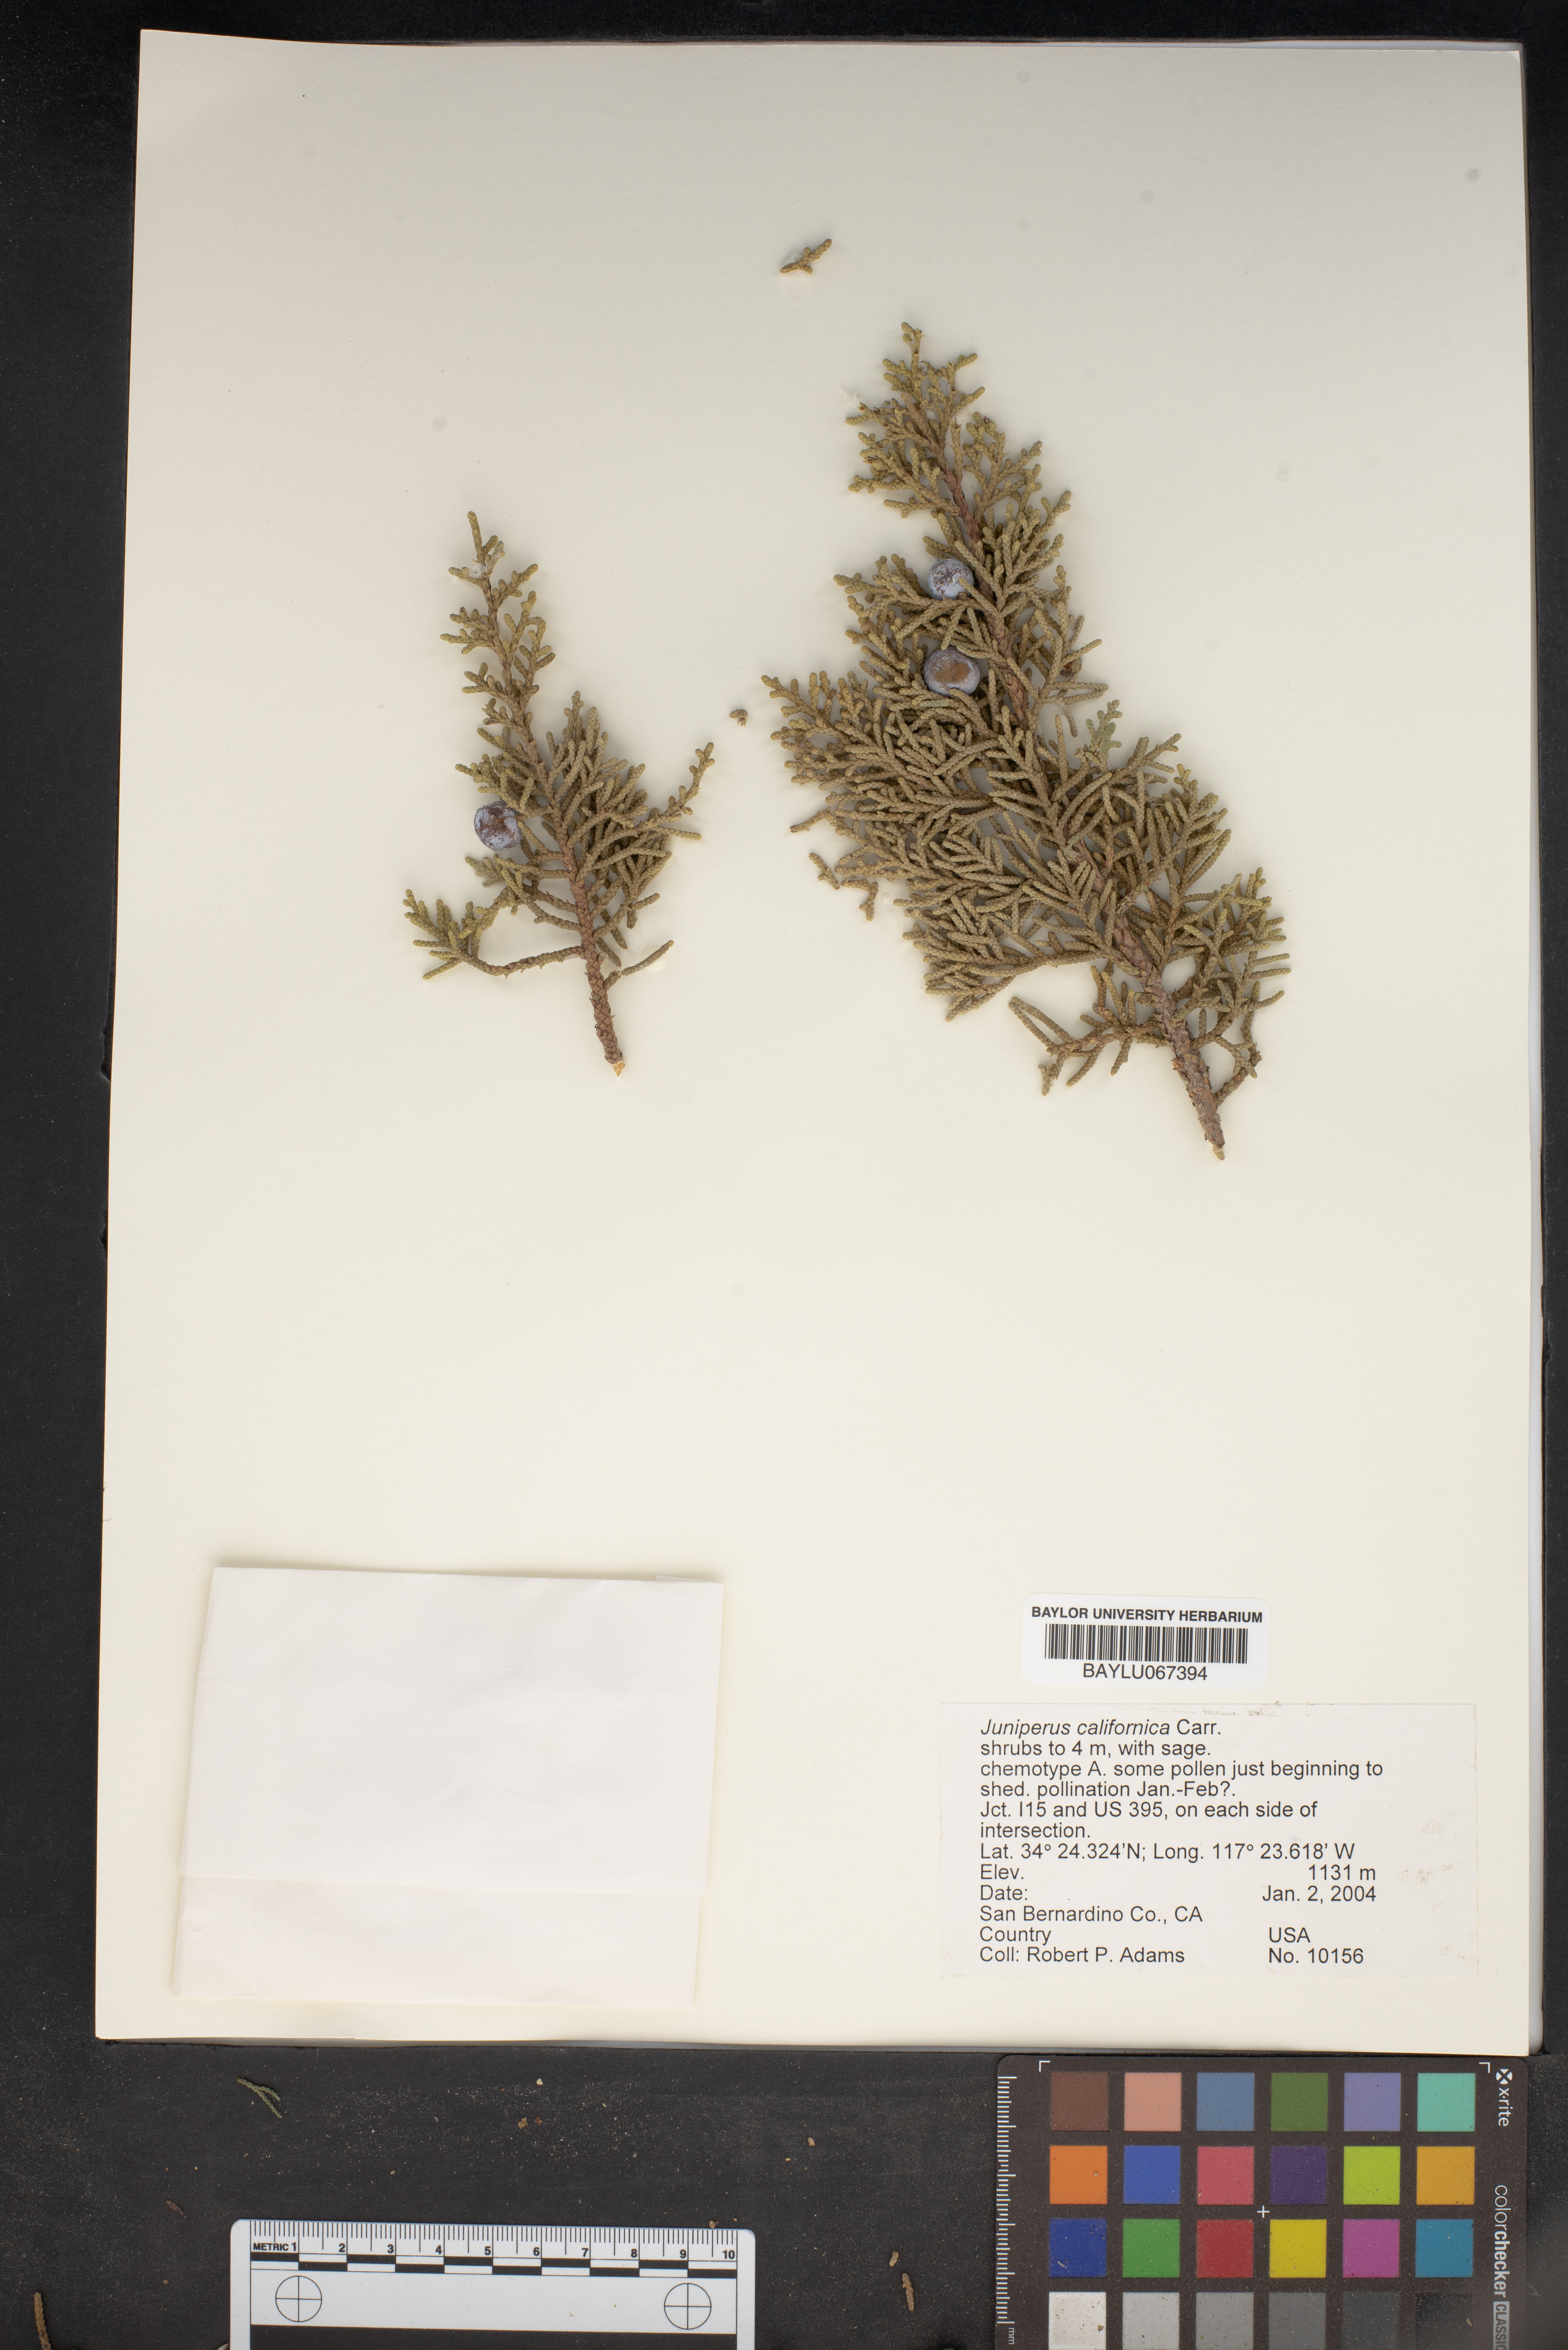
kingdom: Plantae
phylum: Tracheophyta
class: Pinopsida
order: Pinales
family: Cupressaceae
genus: Juniperus
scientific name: Juniperus californica
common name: California juniper
